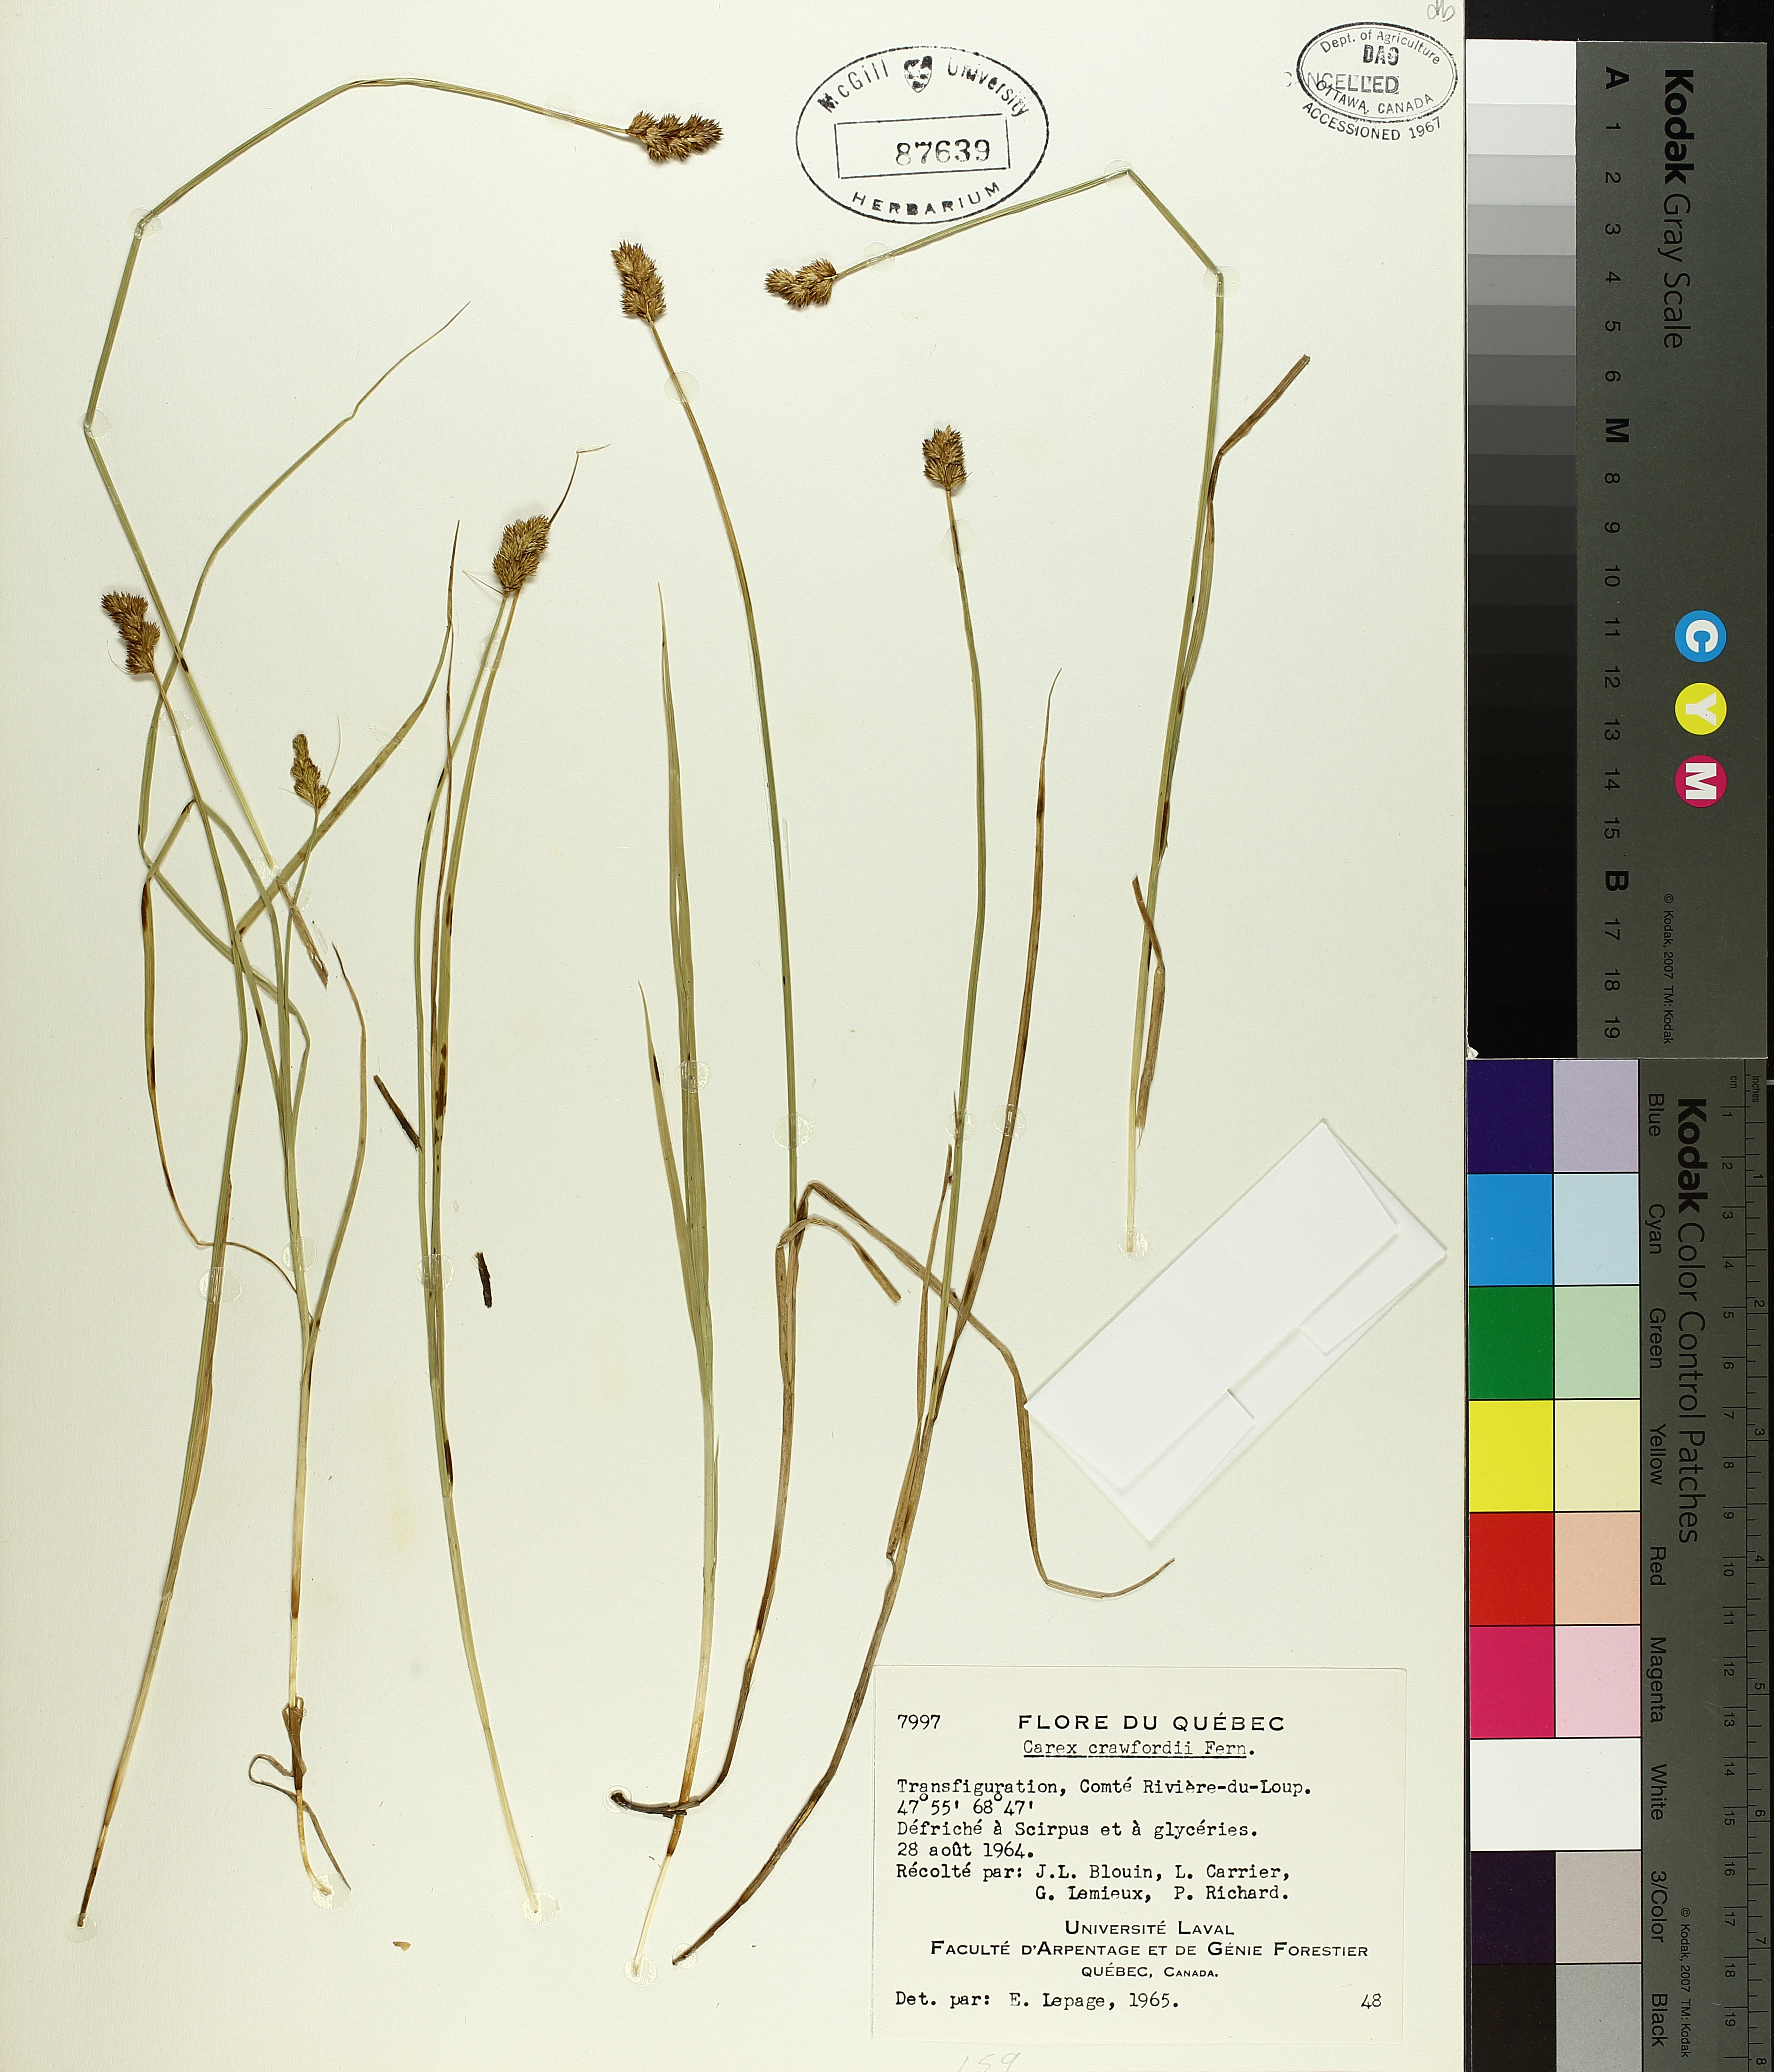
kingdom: Plantae
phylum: Tracheophyta
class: Liliopsida
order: Poales
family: Cyperaceae
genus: Carex
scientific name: Carex crawfordii
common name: Crawford's sedge
